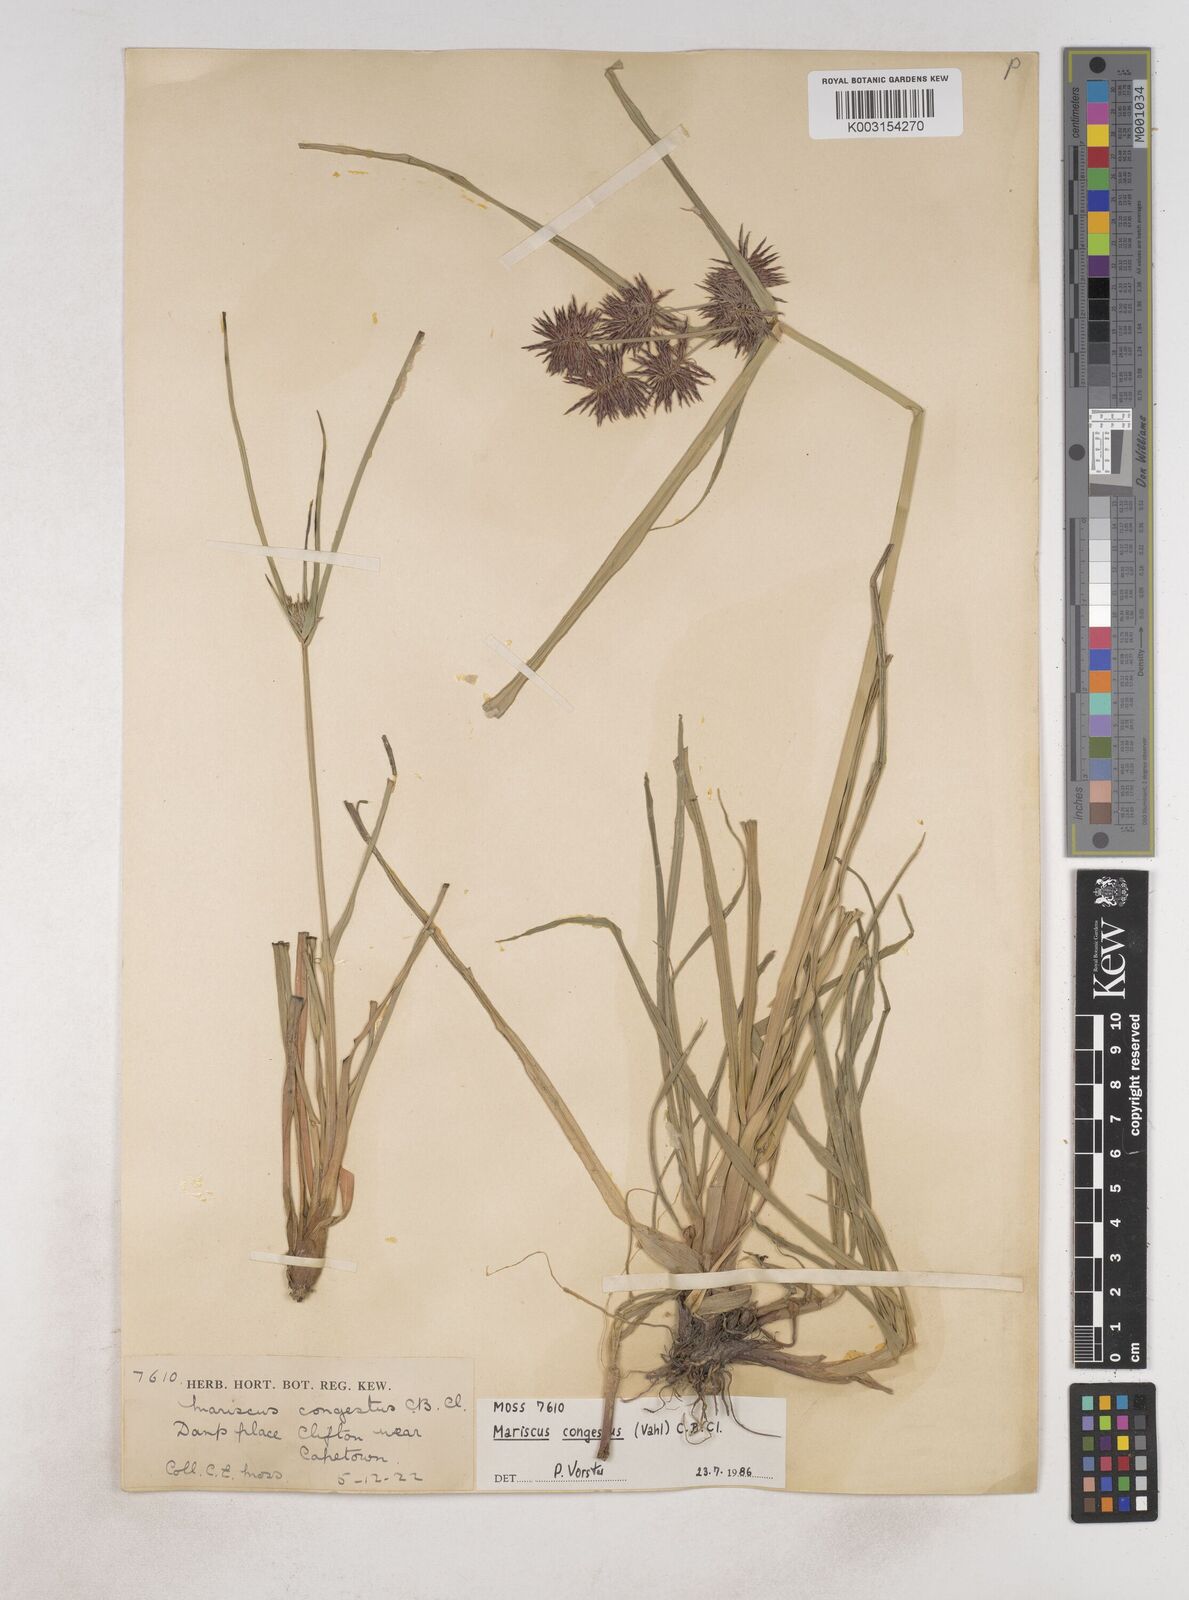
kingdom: Plantae
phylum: Tracheophyta
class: Liliopsida
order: Poales
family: Cyperaceae
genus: Cyperus
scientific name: Cyperus congestus
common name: Dense flat sedge
